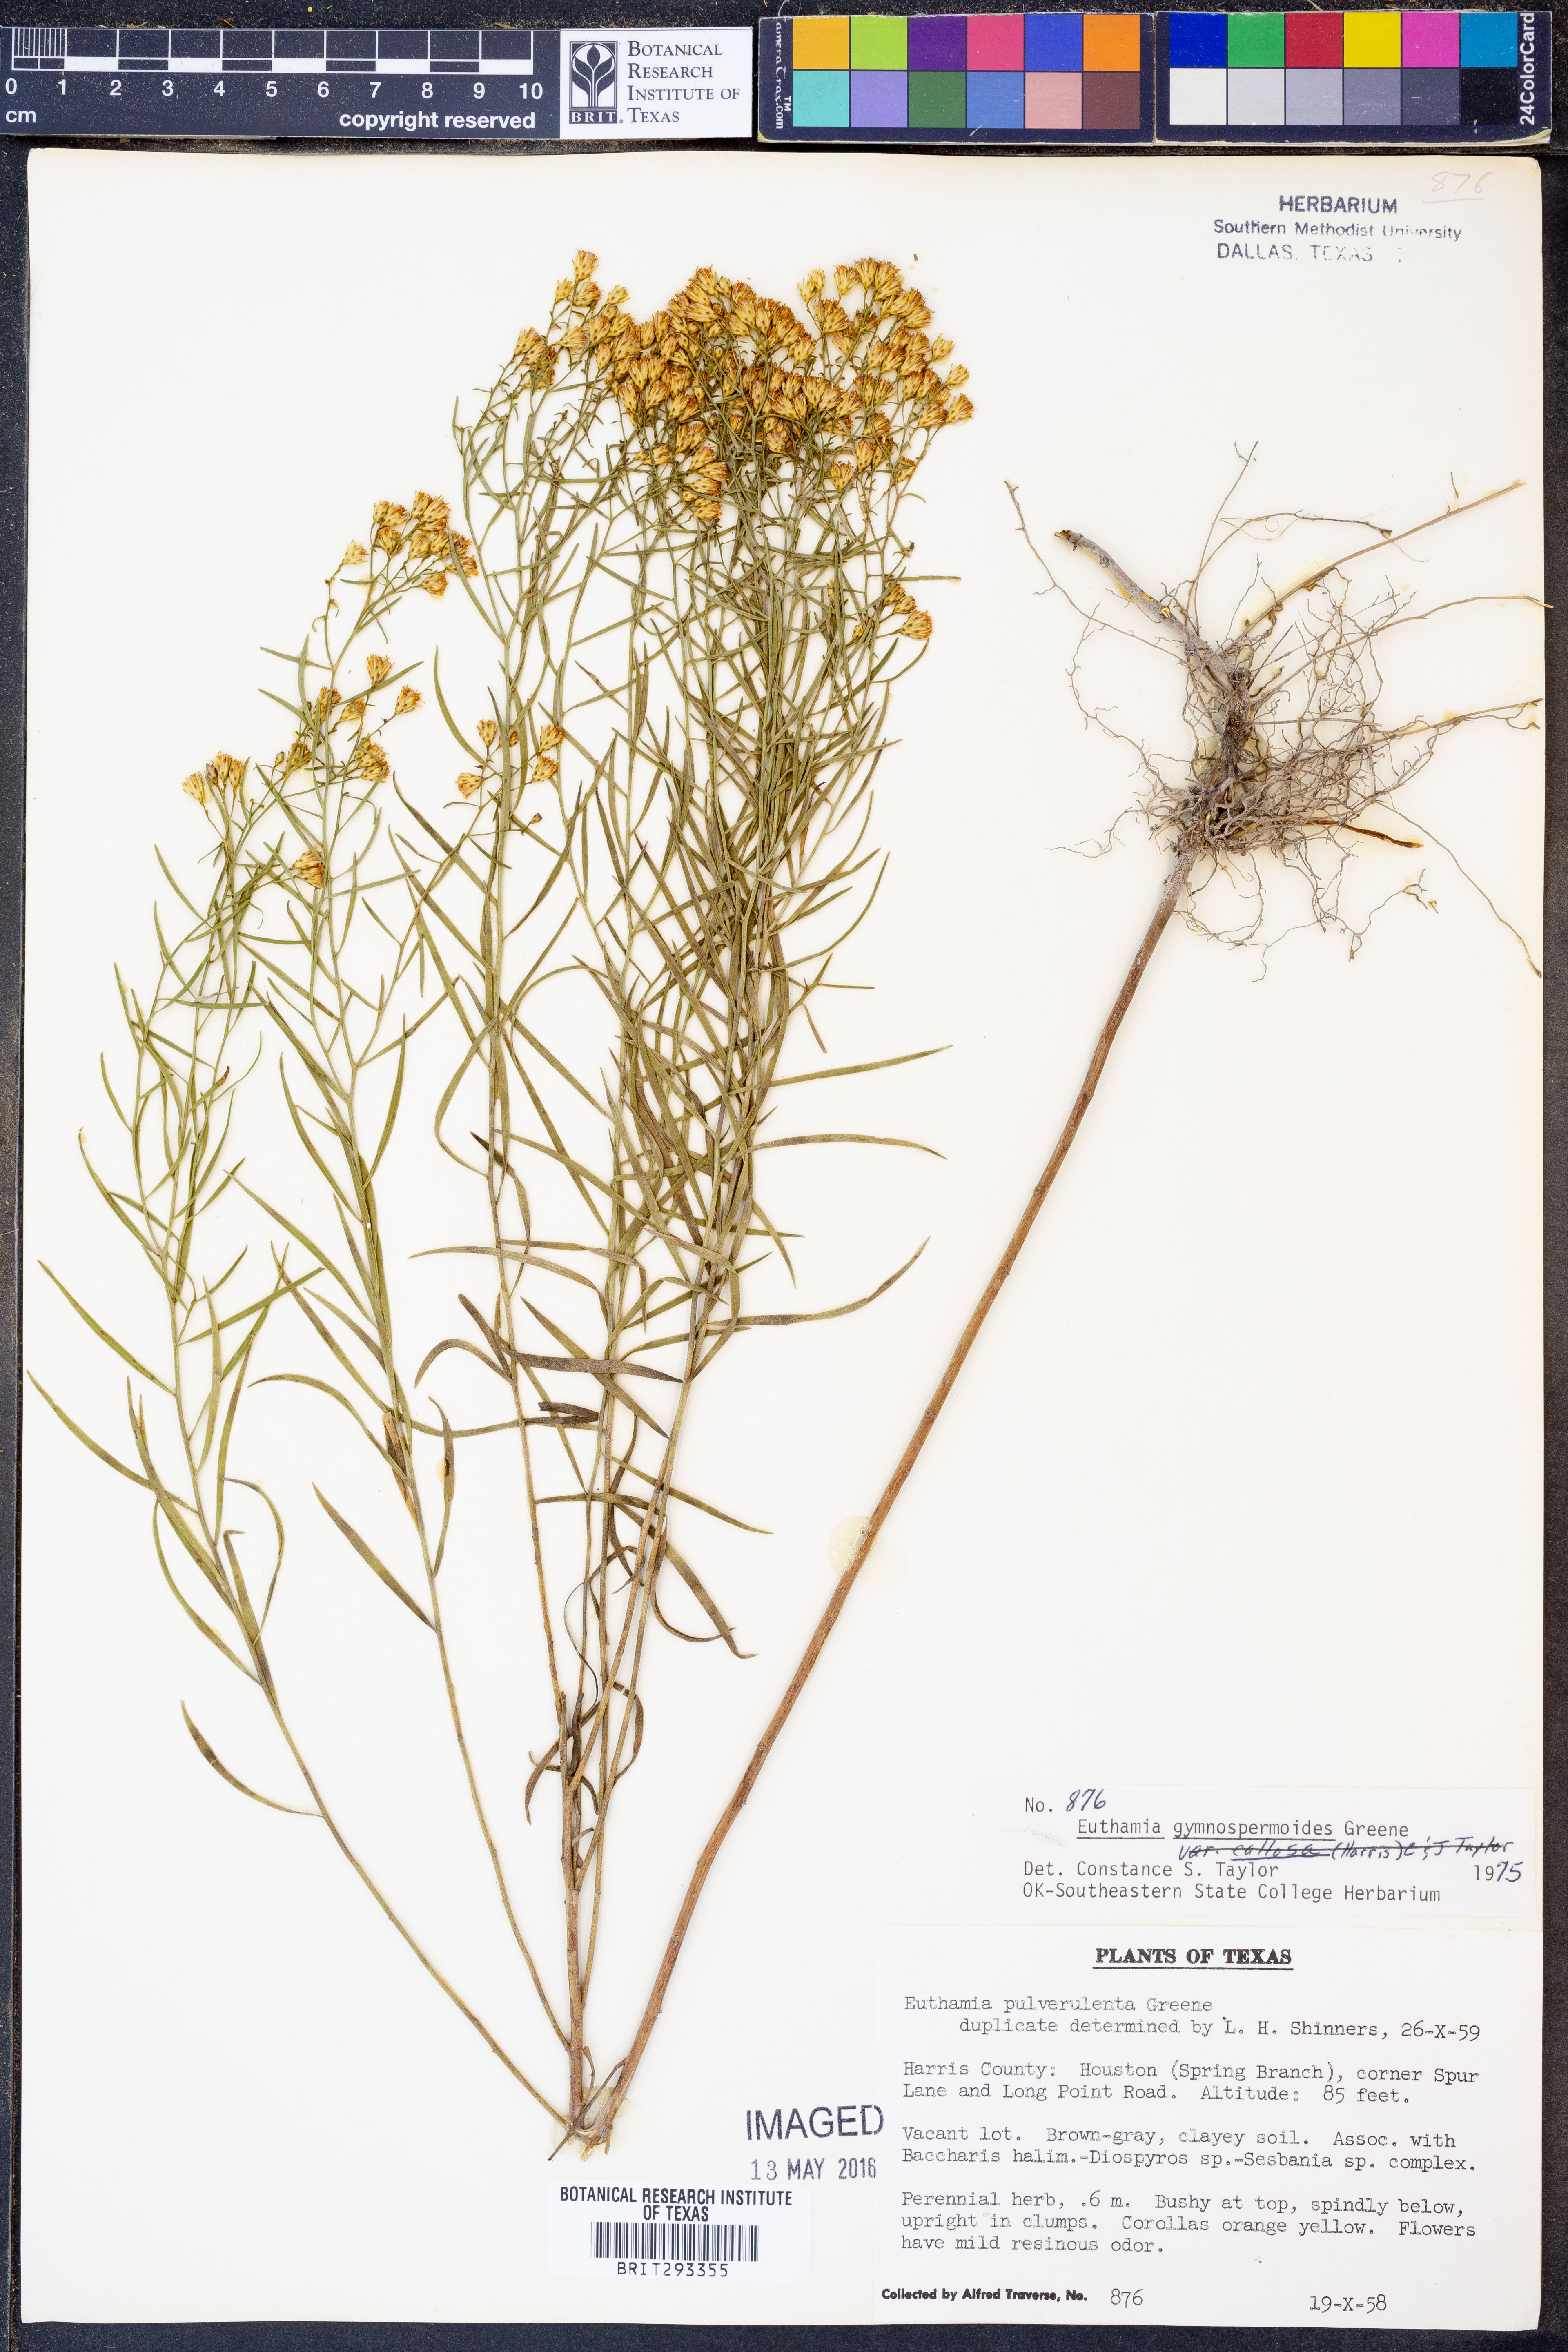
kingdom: Plantae
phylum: Tracheophyta
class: Magnoliopsida
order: Asterales
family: Asteraceae
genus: Euthamia
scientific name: Euthamia gymnospermoides
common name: Great plains goldentop
